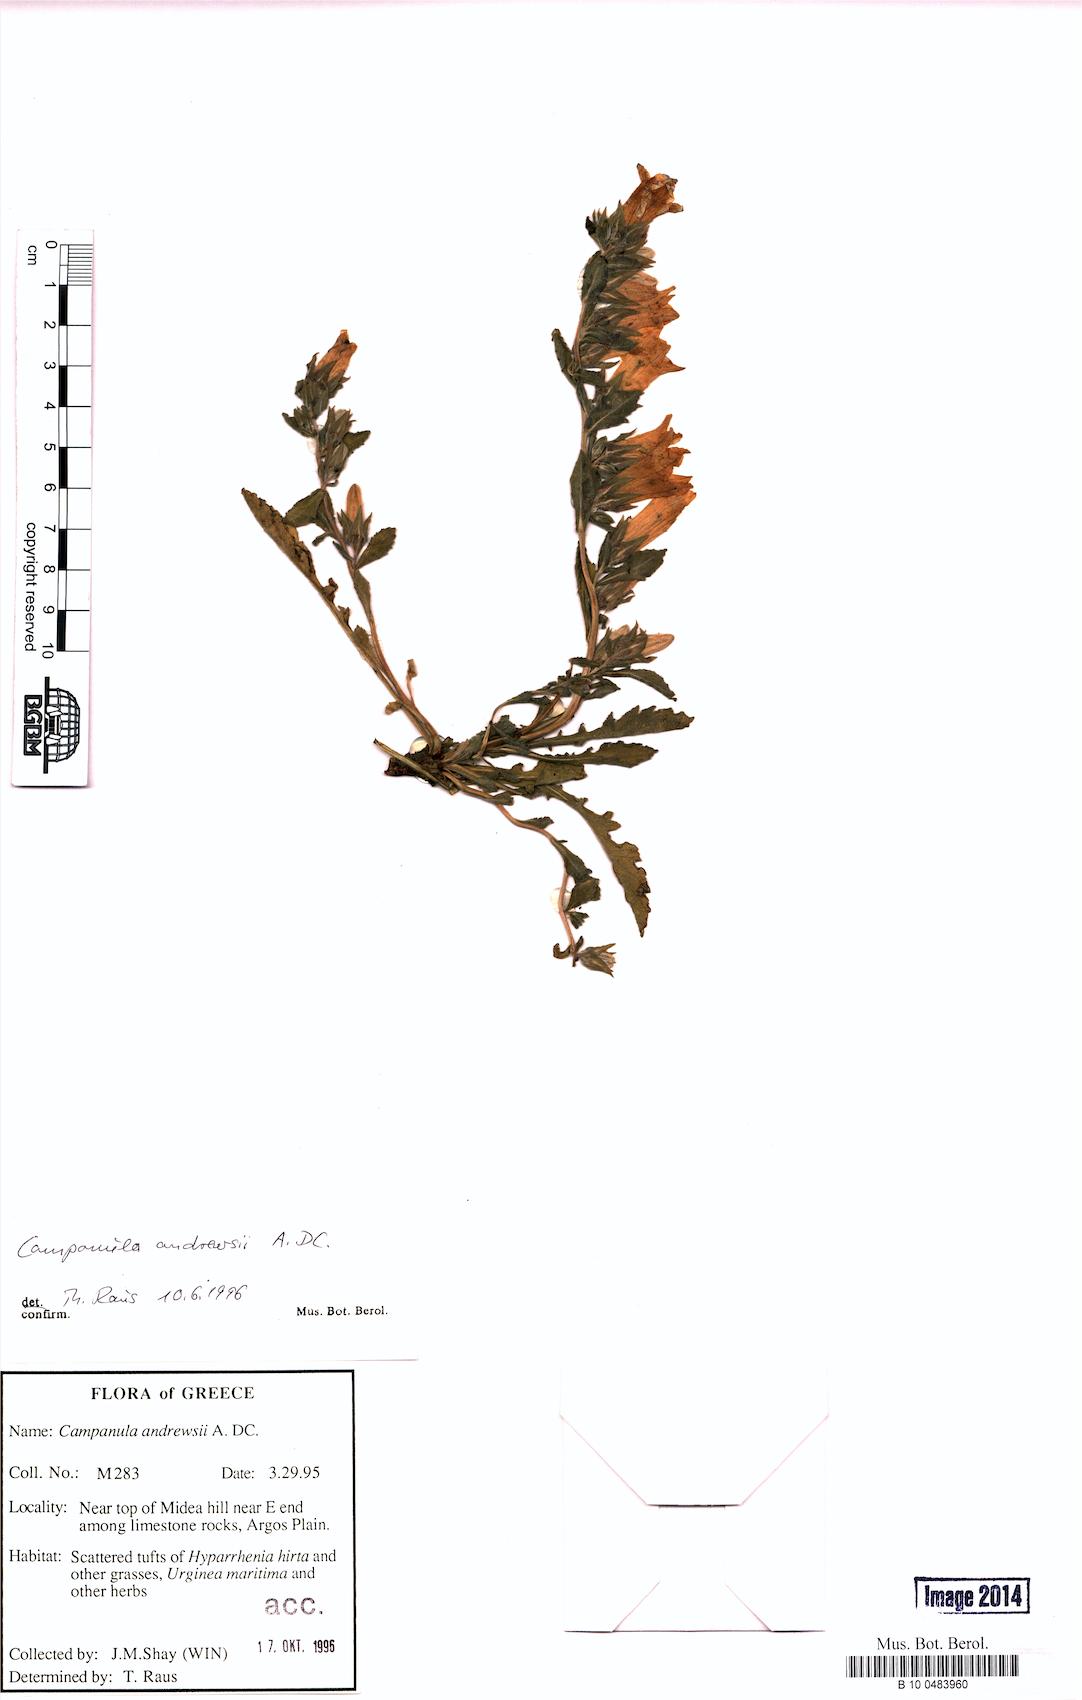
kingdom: Plantae
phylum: Tracheophyta
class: Magnoliopsida
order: Asterales
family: Campanulaceae
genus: Campanula
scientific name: Campanula andrewsii
